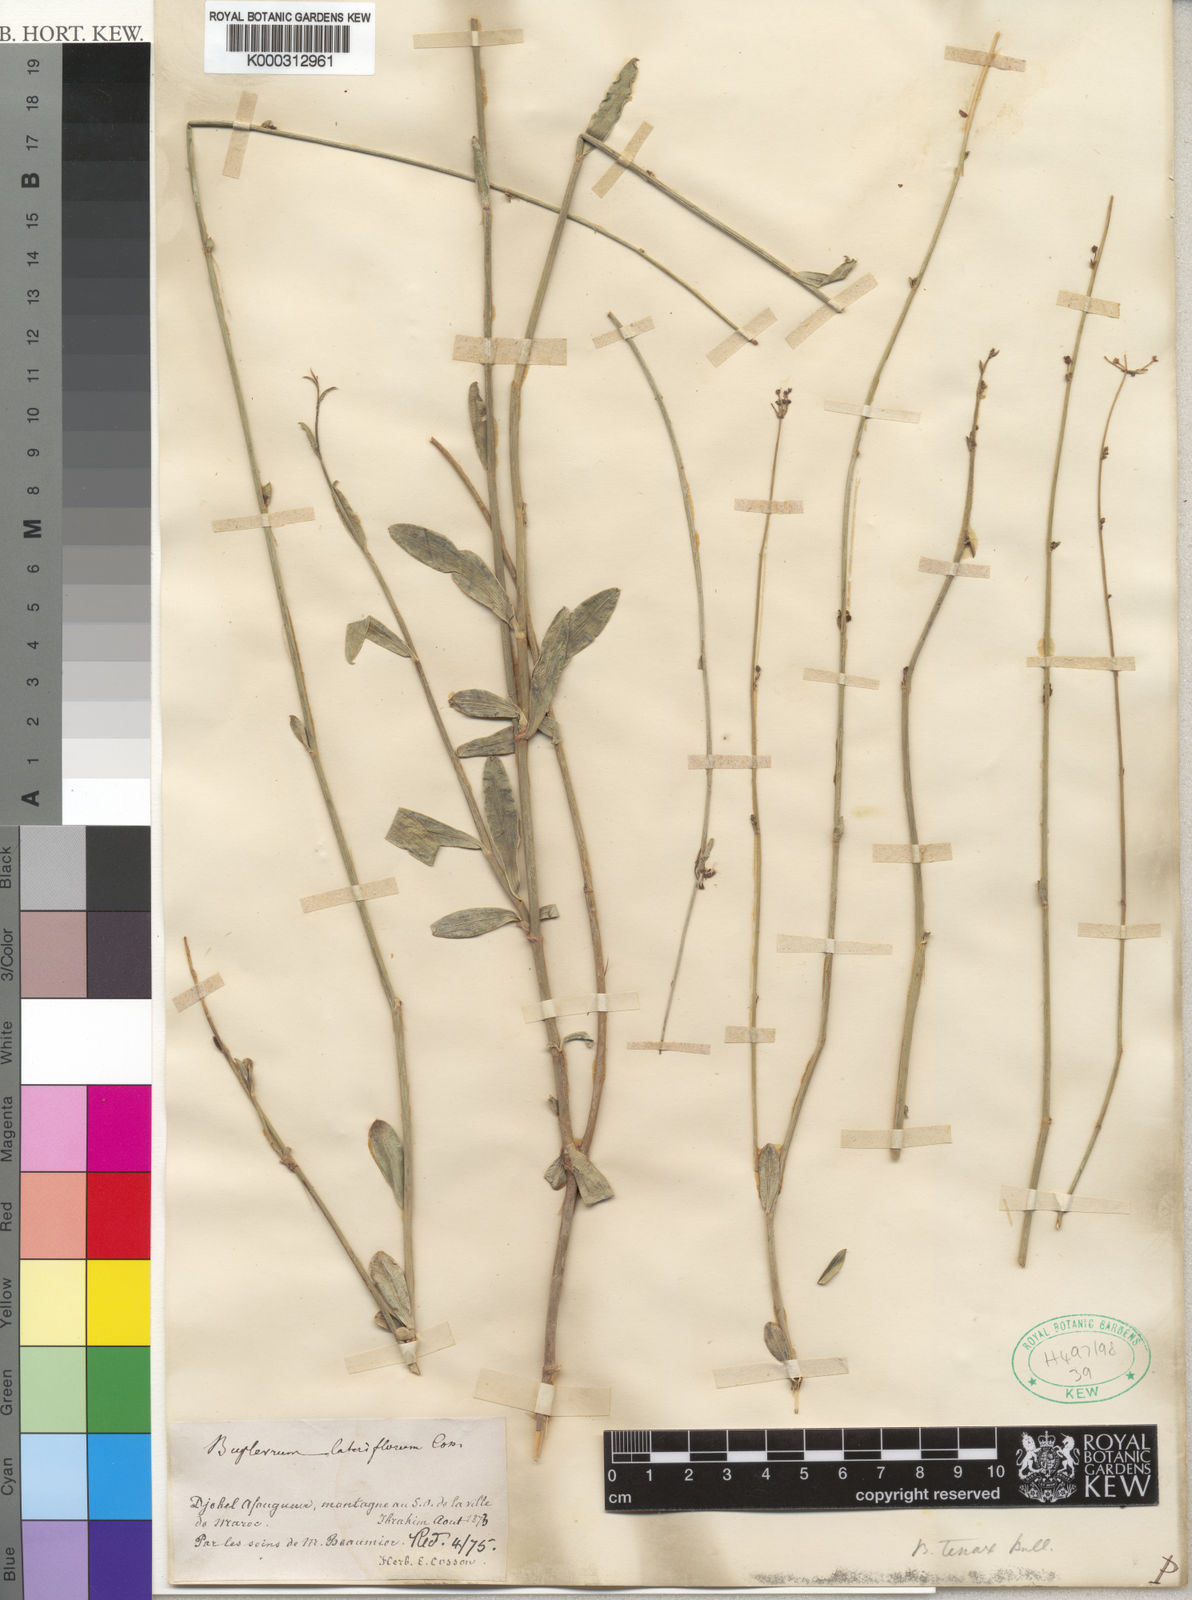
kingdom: Plantae
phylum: Tracheophyta
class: Magnoliopsida
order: Apiales
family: Apiaceae
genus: Bupleurum
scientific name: Bupleurum lateriflorum
